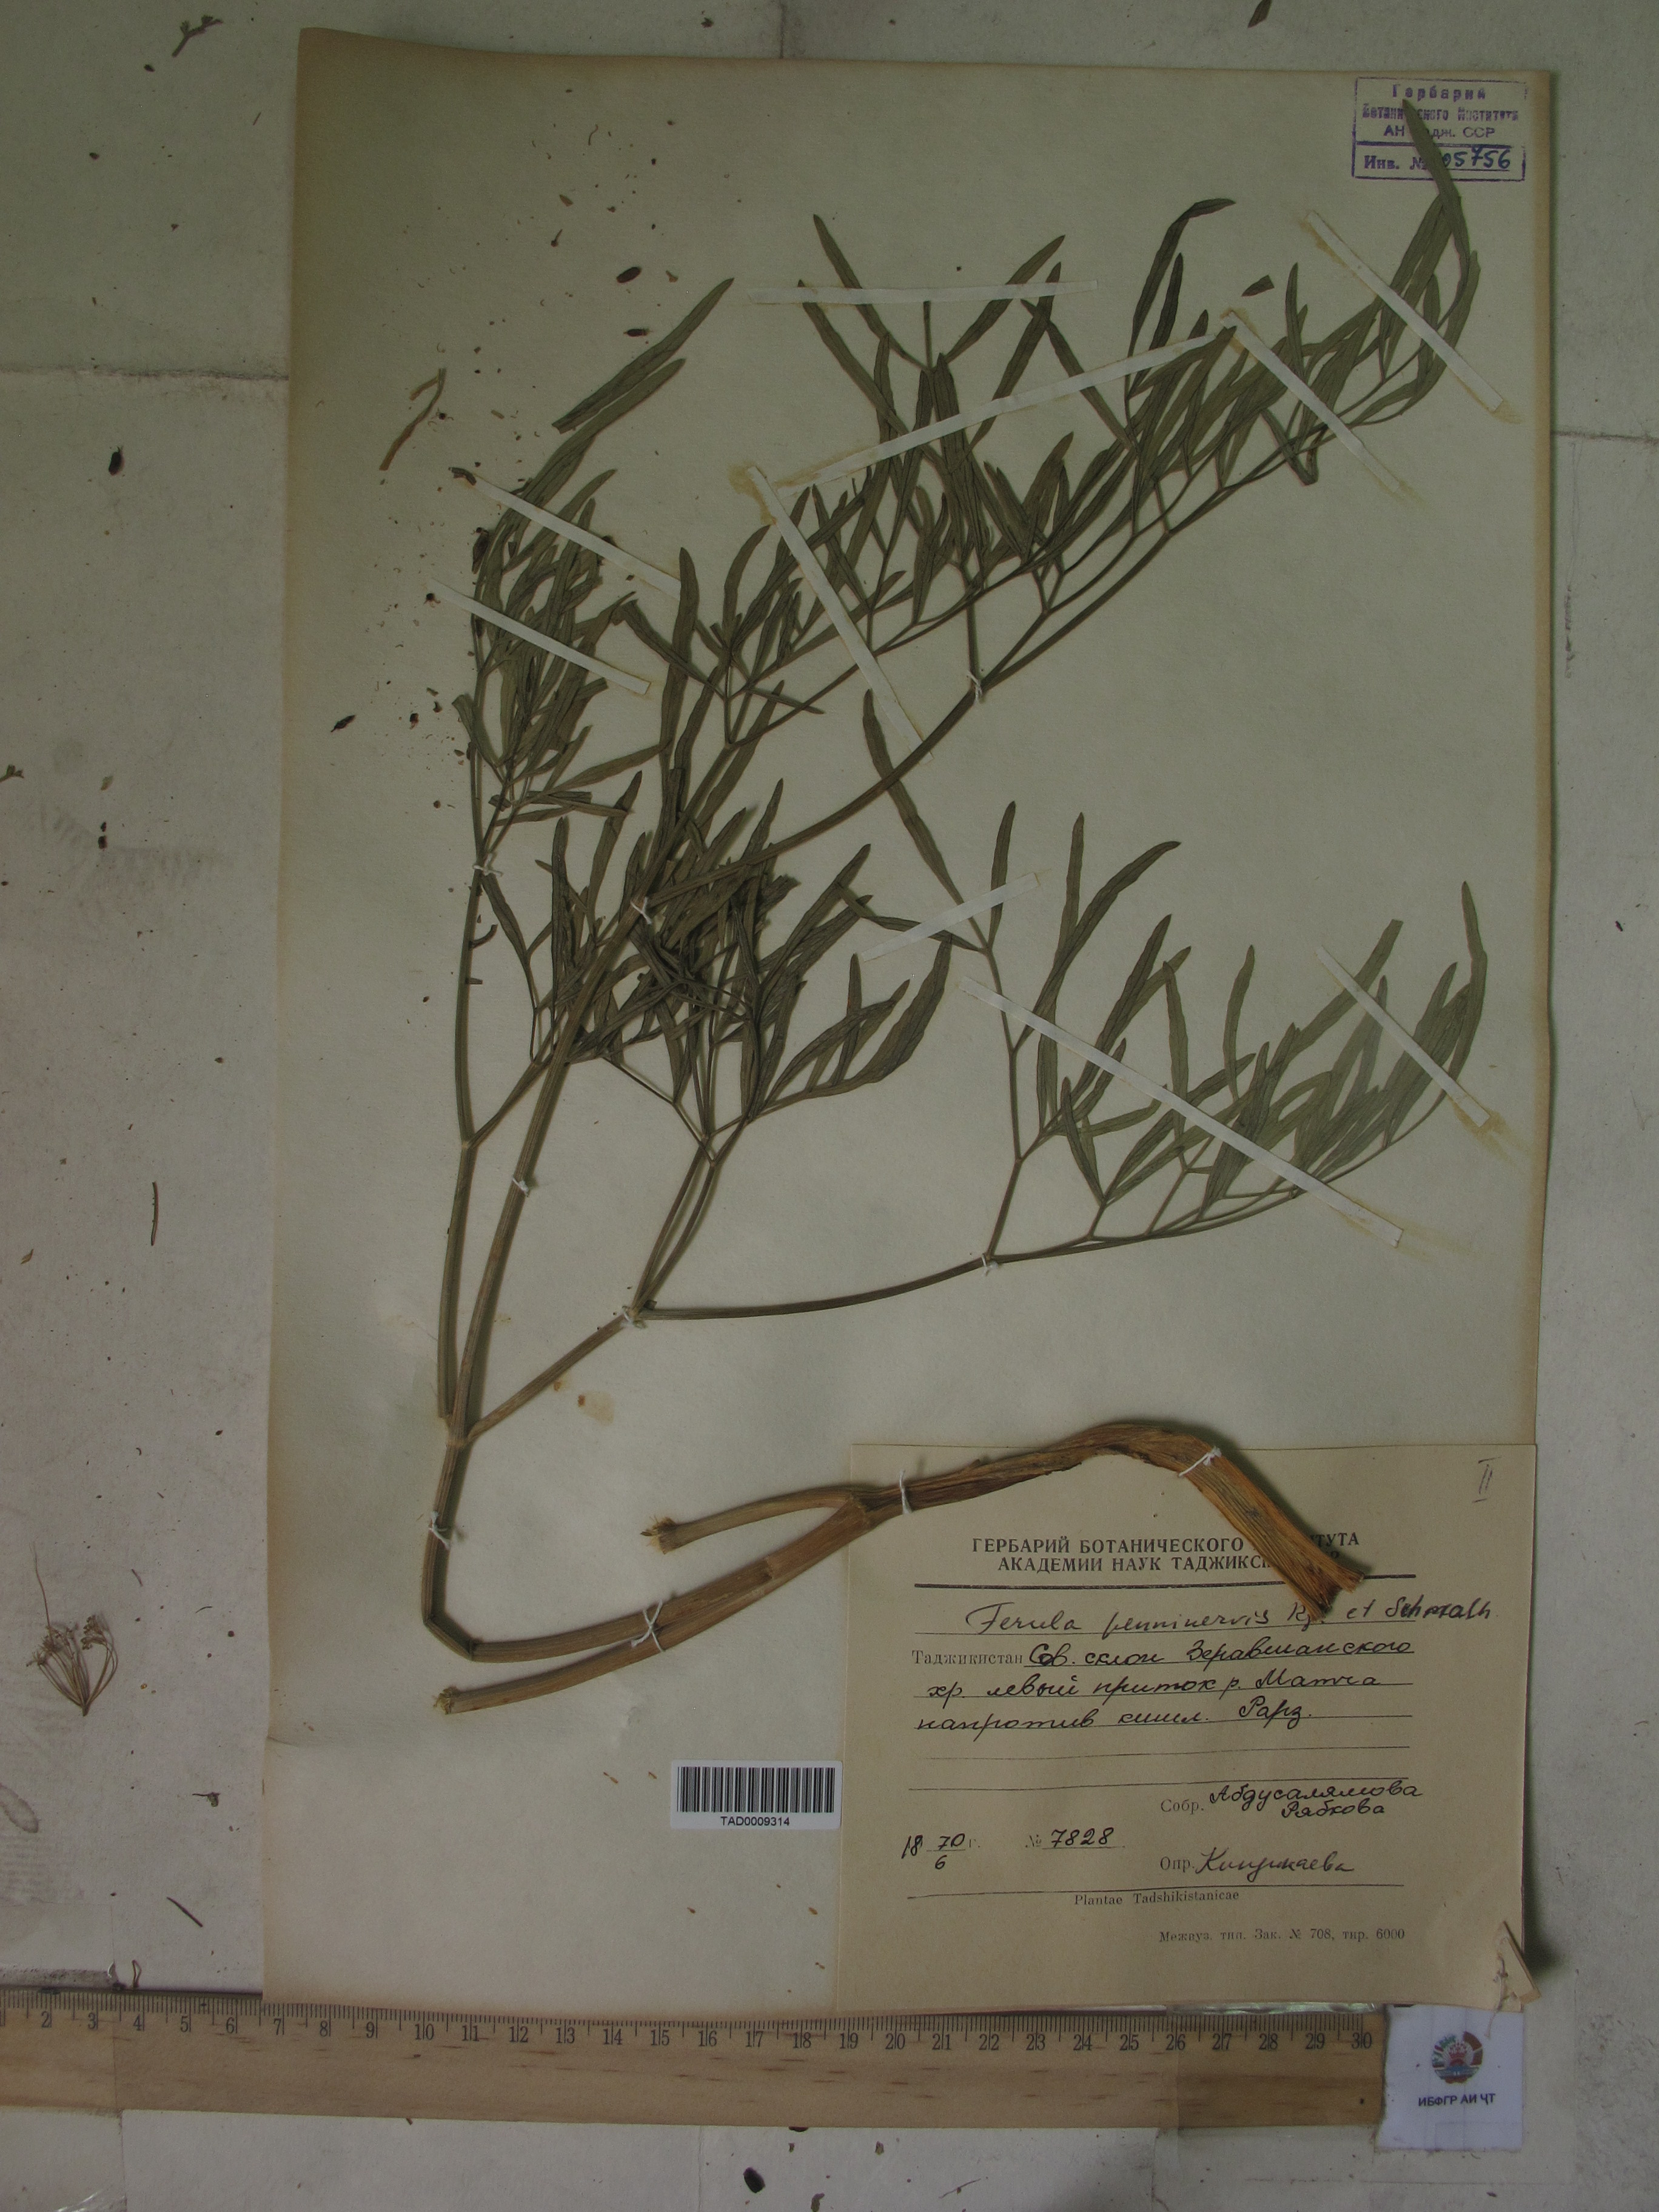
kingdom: Plantae
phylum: Tracheophyta
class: Magnoliopsida
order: Apiales
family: Apiaceae
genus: Ferula
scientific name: Ferula penninervis
